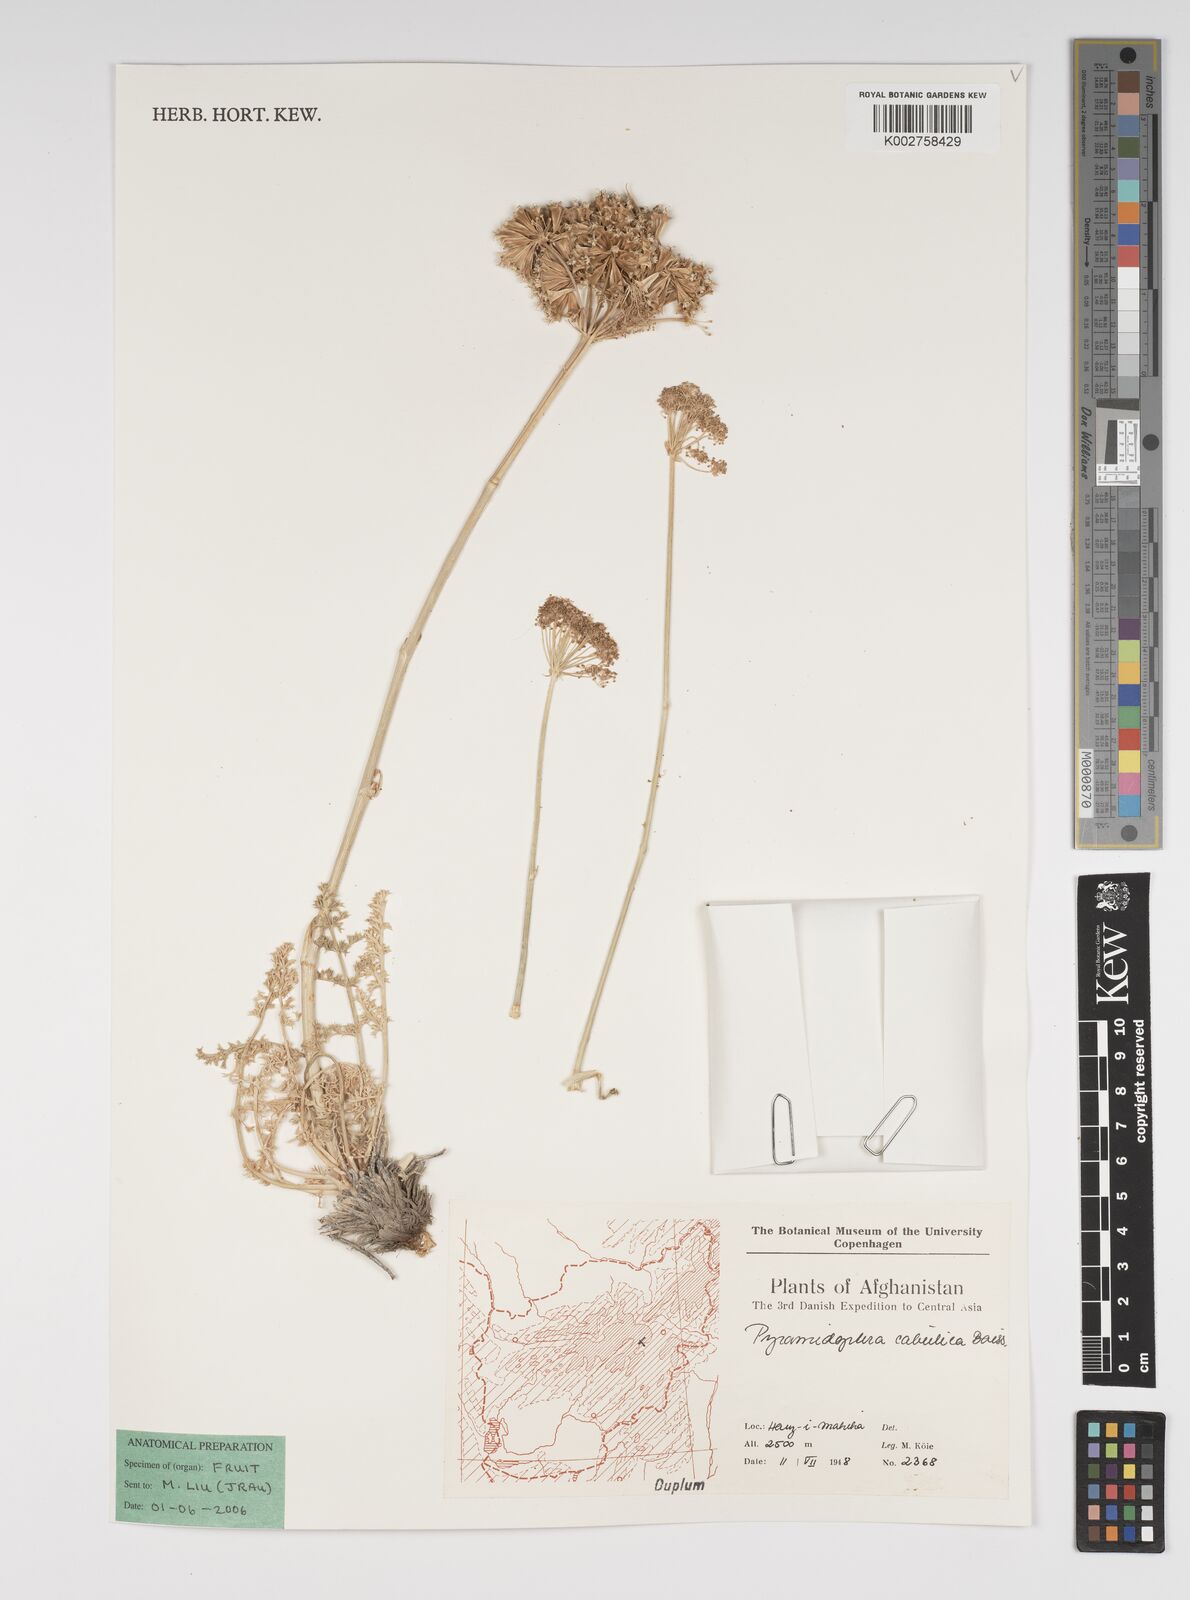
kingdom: Plantae
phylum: Tracheophyta
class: Magnoliopsida
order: Apiales
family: Apiaceae
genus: Pyramidoptera
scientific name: Pyramidoptera cabulica
